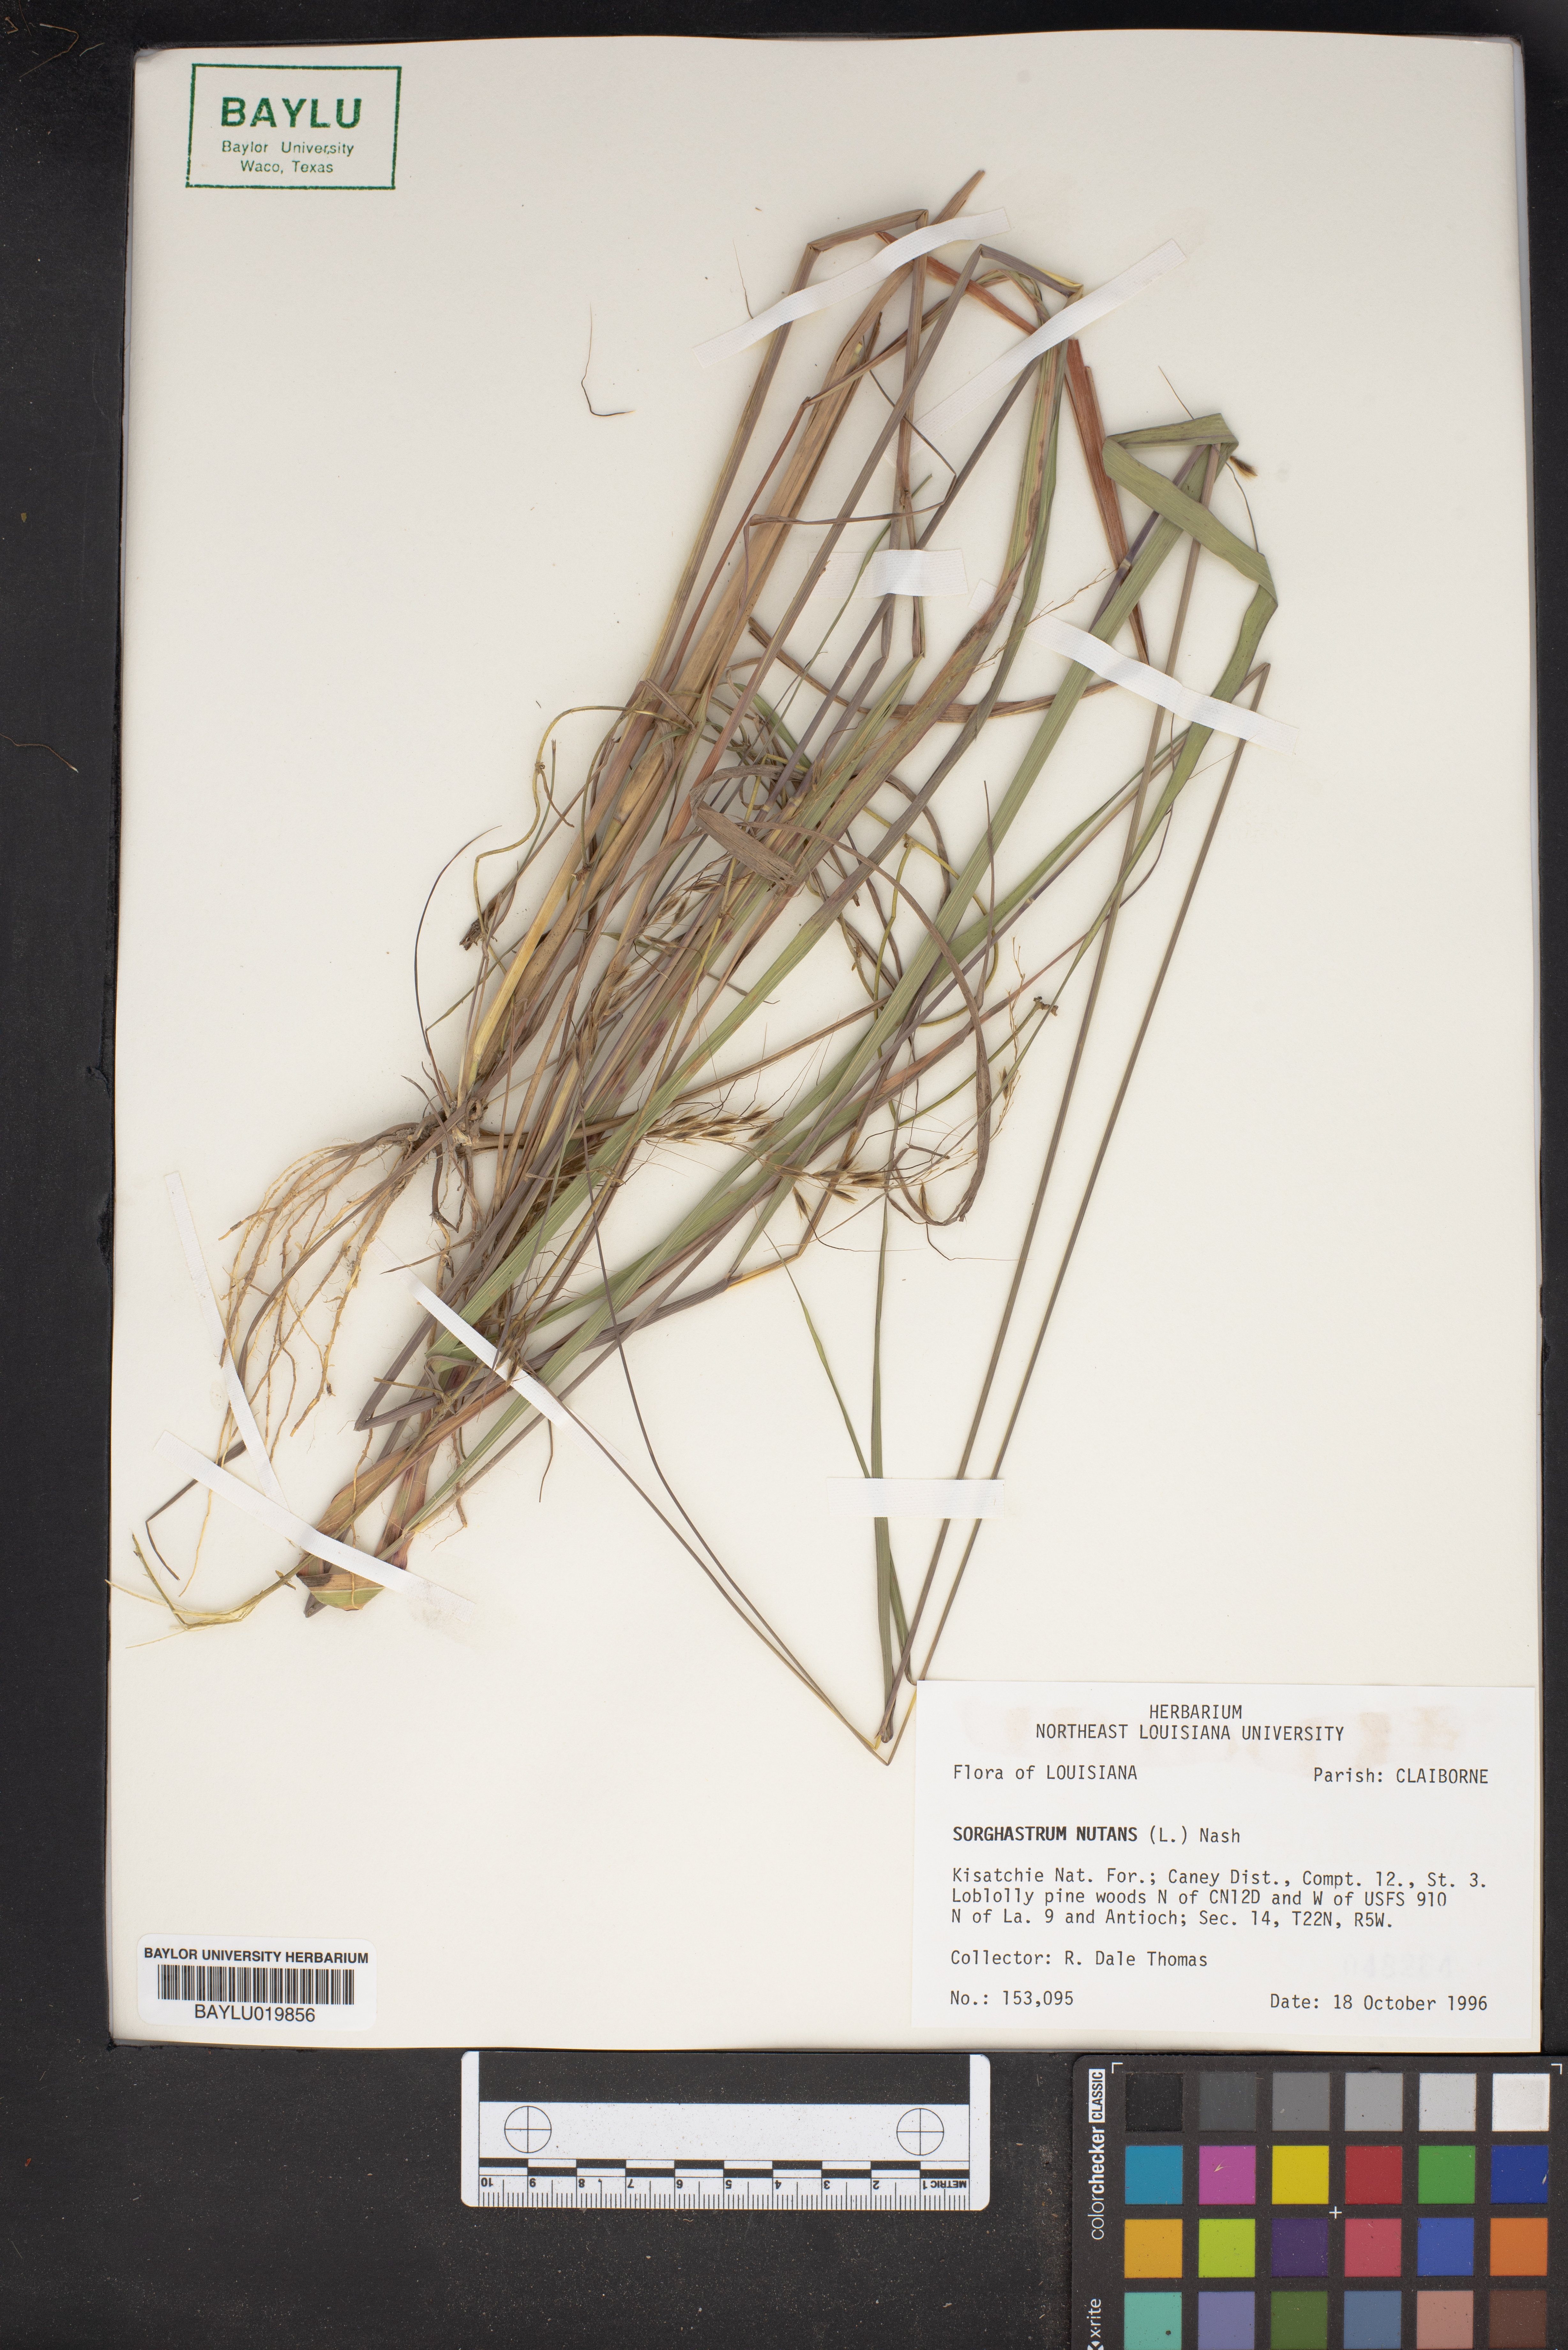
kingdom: Plantae
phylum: Tracheophyta
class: Liliopsida
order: Poales
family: Poaceae
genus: Sorghastrum
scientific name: Sorghastrum nutans
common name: Indian grass
